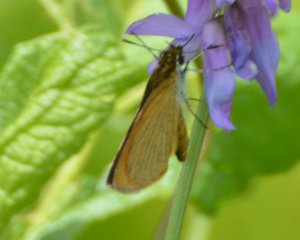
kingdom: Animalia
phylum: Arthropoda
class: Insecta
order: Lepidoptera
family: Hesperiidae
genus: Ancyloxypha
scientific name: Ancyloxypha numitor
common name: Least Skipper
